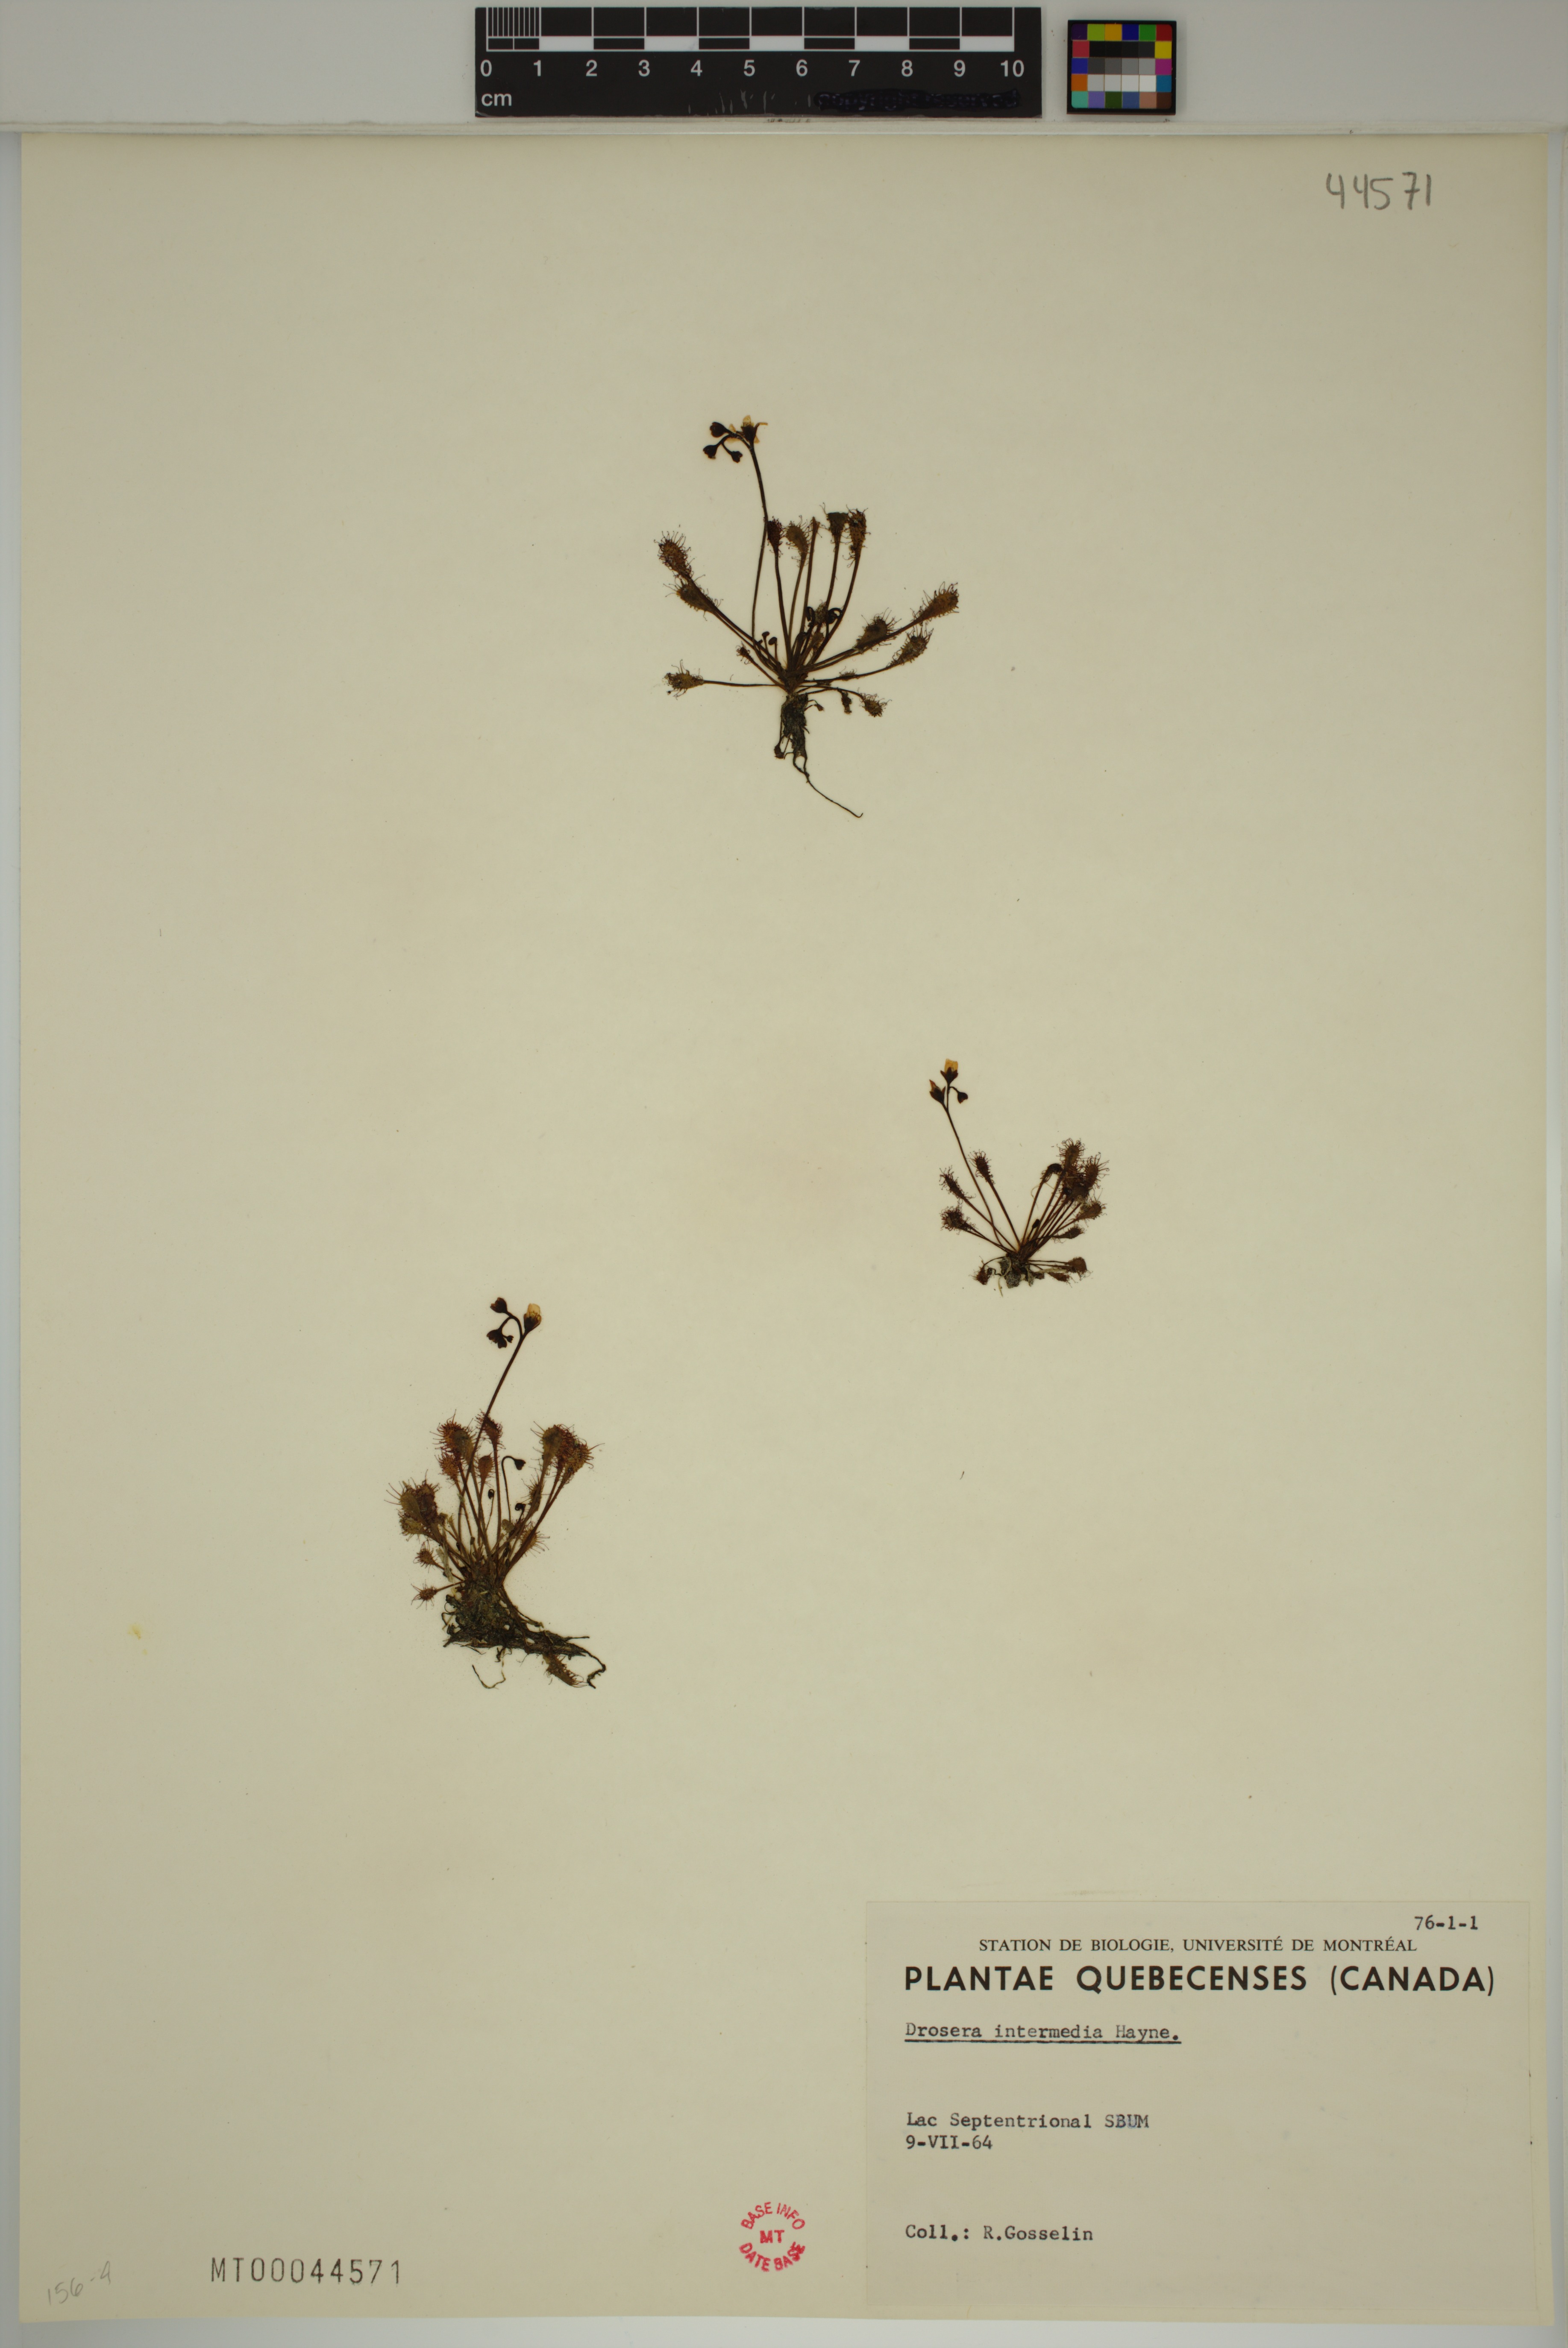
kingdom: Plantae
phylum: Tracheophyta
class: Magnoliopsida
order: Caryophyllales
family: Droseraceae
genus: Drosera
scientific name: Drosera intermedia
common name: Oblong-leaved sundew
